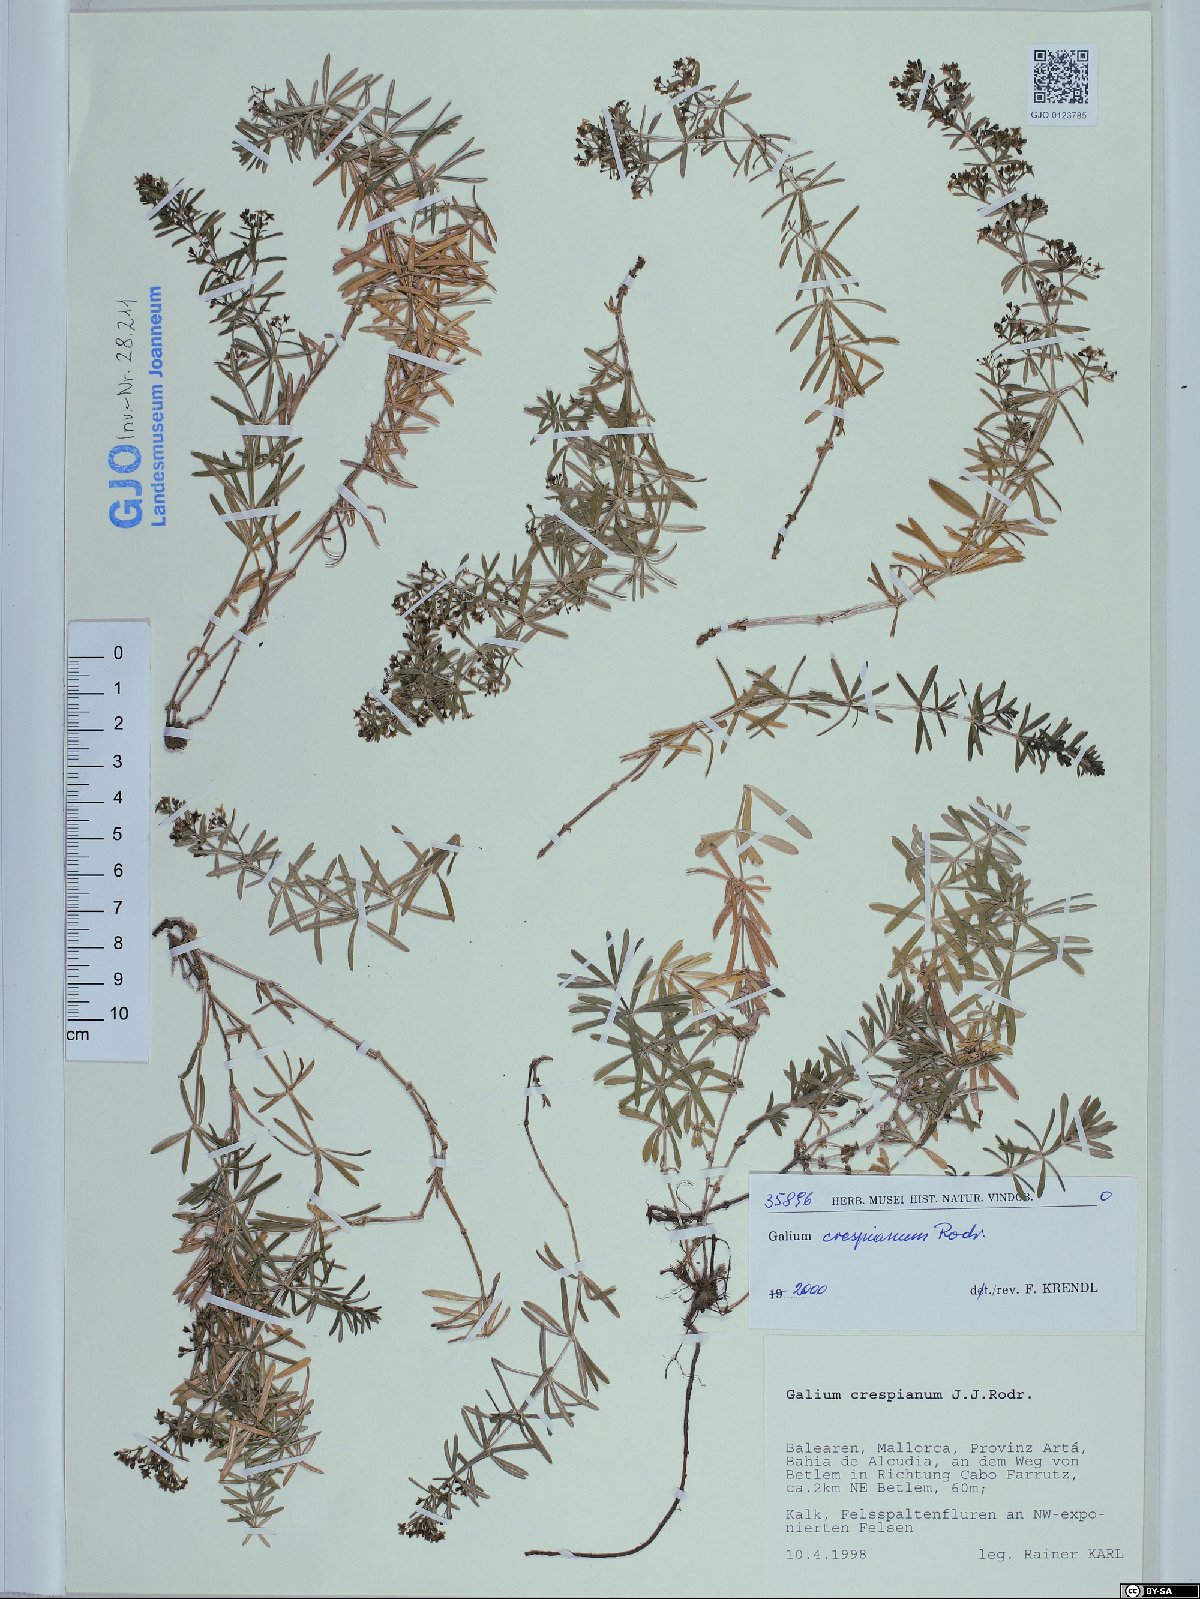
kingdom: Plantae
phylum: Tracheophyta
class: Magnoliopsida
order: Gentianales
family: Rubiaceae
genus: Galium
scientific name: Galium crespianum
